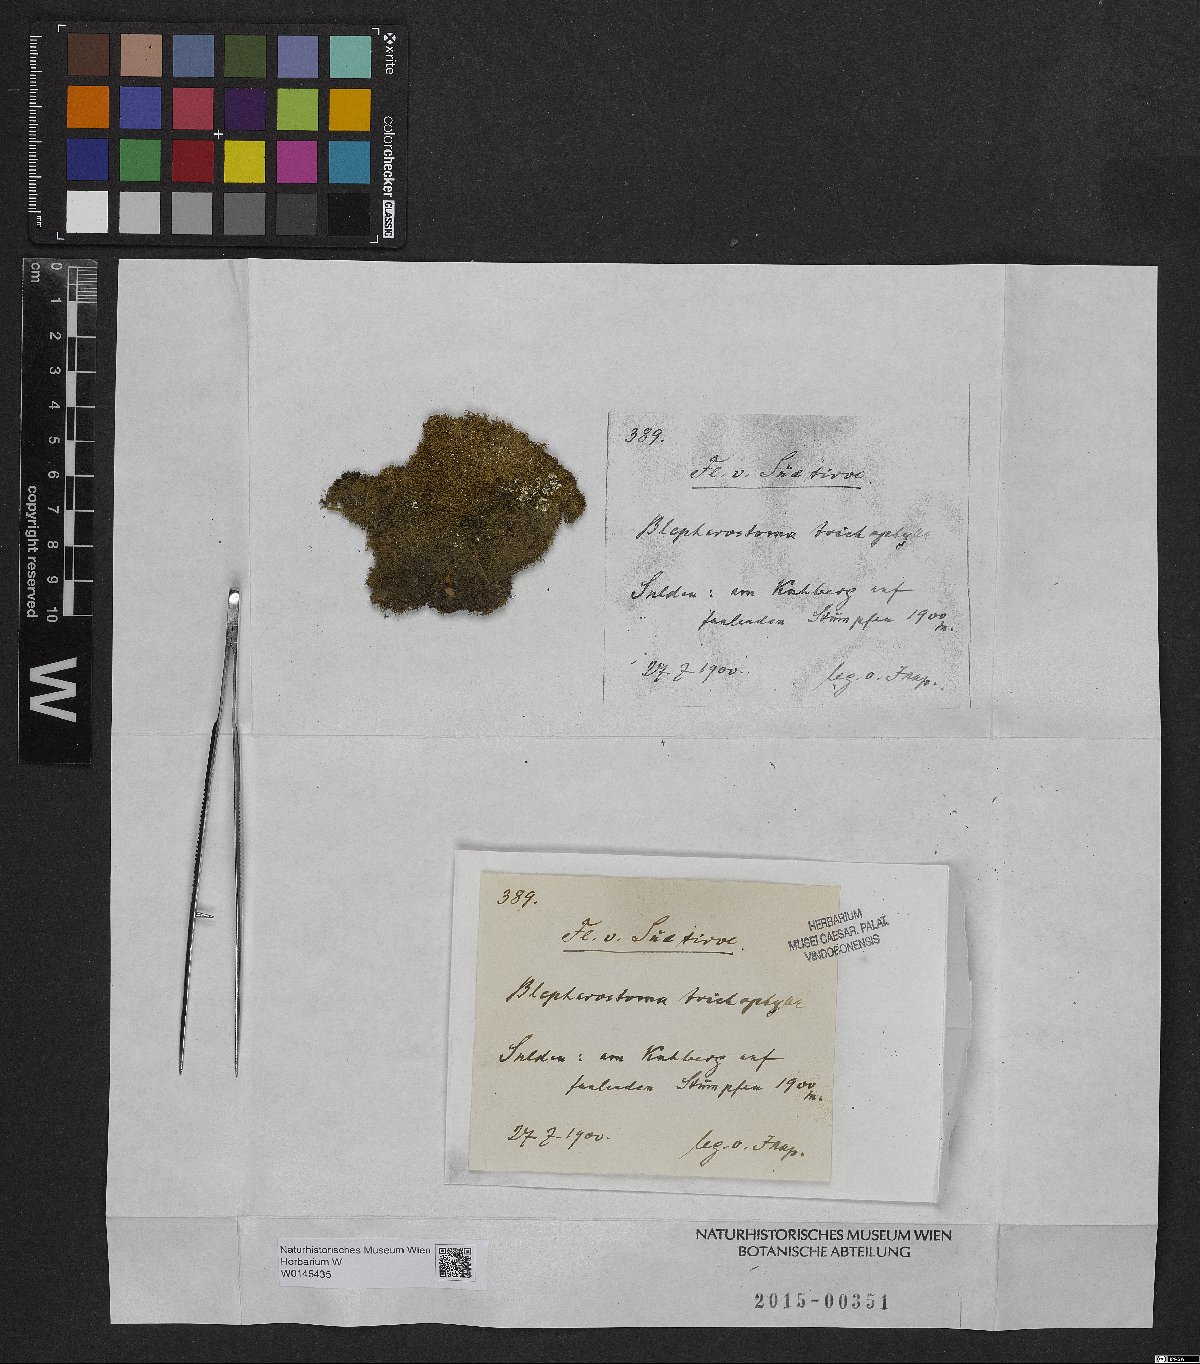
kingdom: Plantae
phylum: Marchantiophyta
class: Jungermanniopsida
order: Jungermanniales
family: Blepharostomataceae
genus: Blepharostoma
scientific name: Blepharostoma trichophyllum
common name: Hairy threadwort
